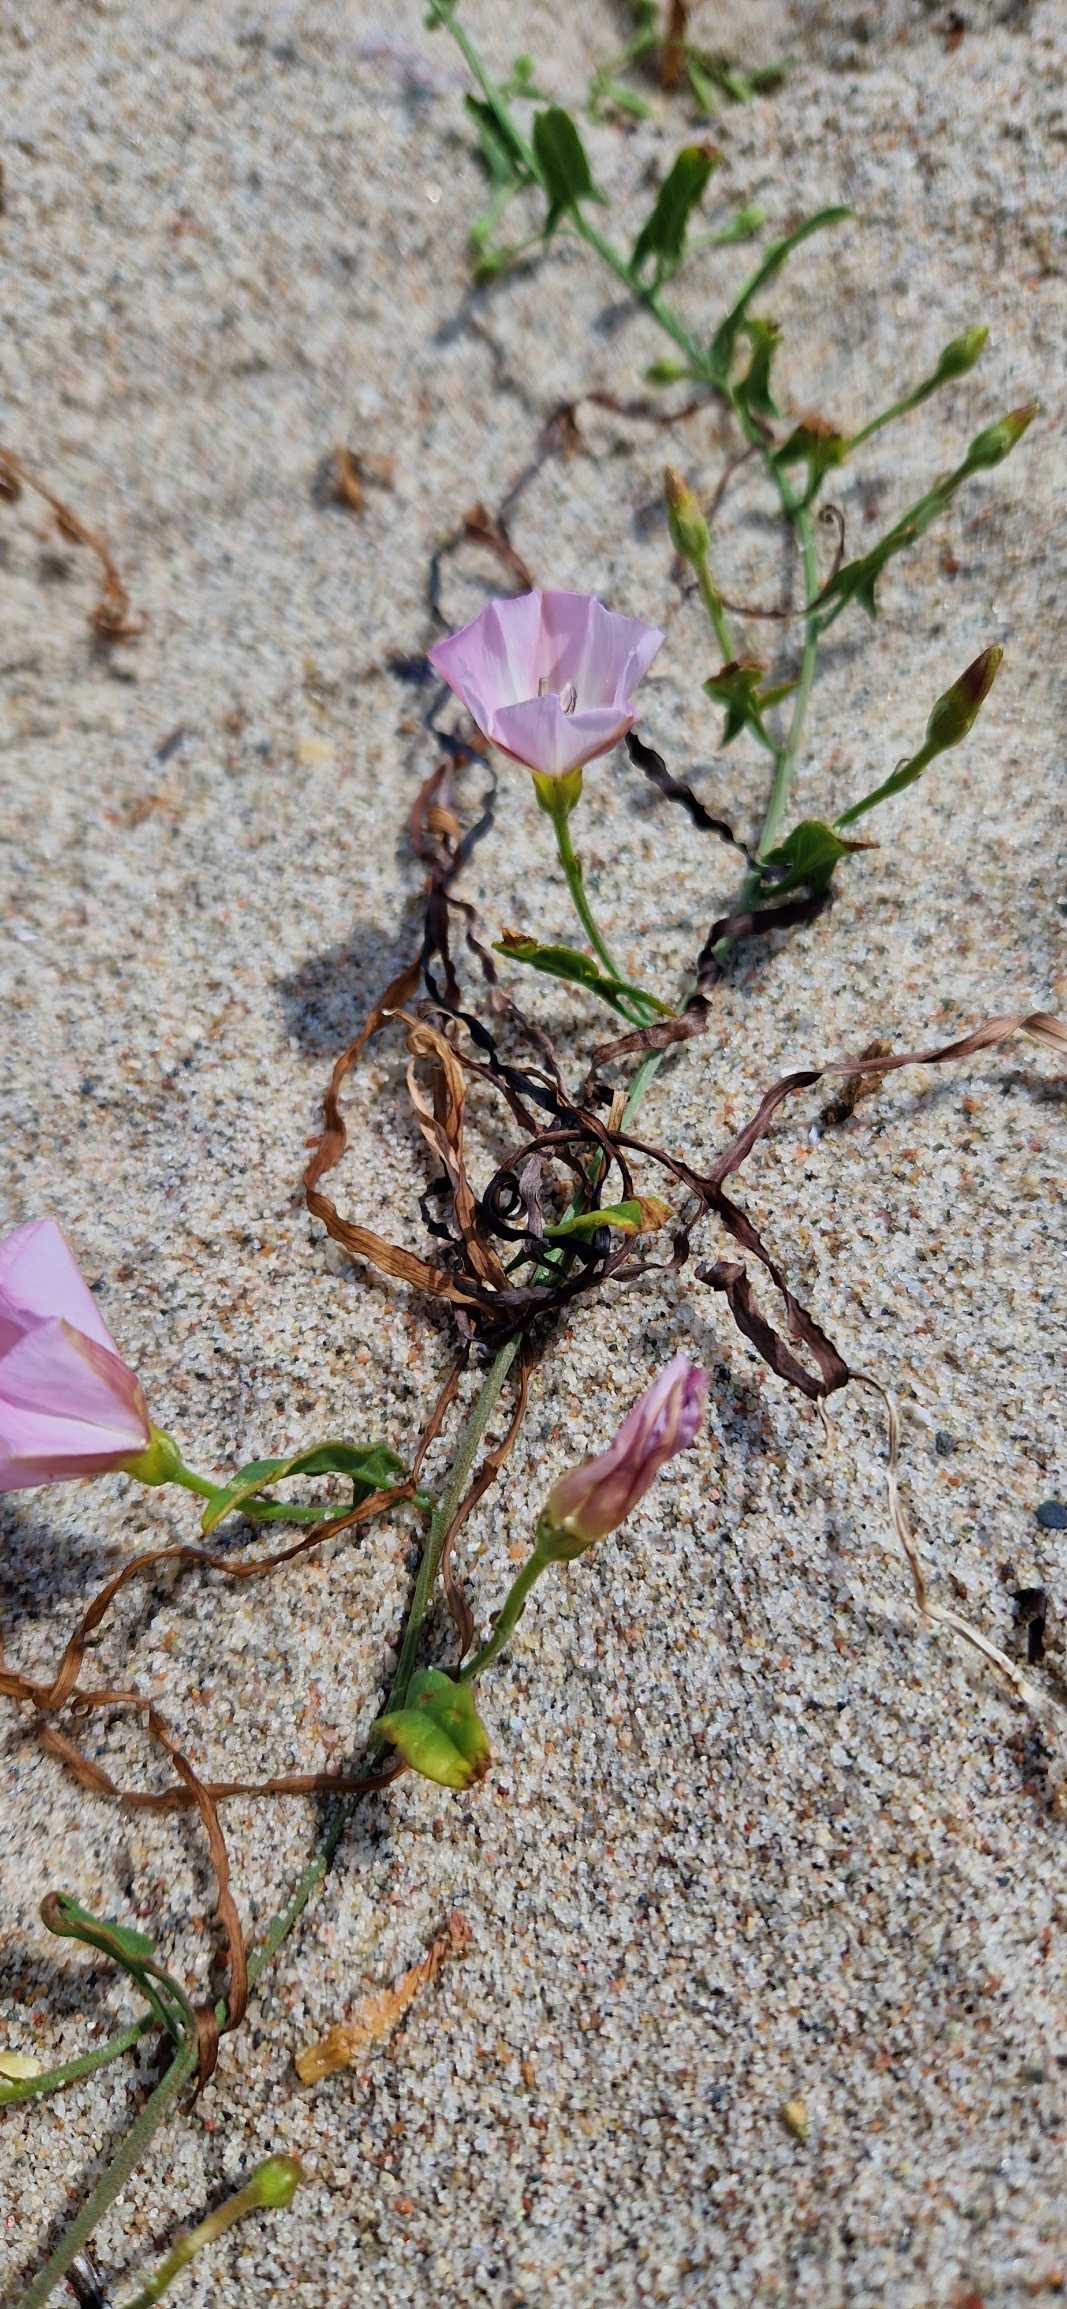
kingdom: Plantae
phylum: Tracheophyta
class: Magnoliopsida
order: Solanales
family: Convolvulaceae
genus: Convolvulus
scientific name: Convolvulus arvensis
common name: Ager-snerle
